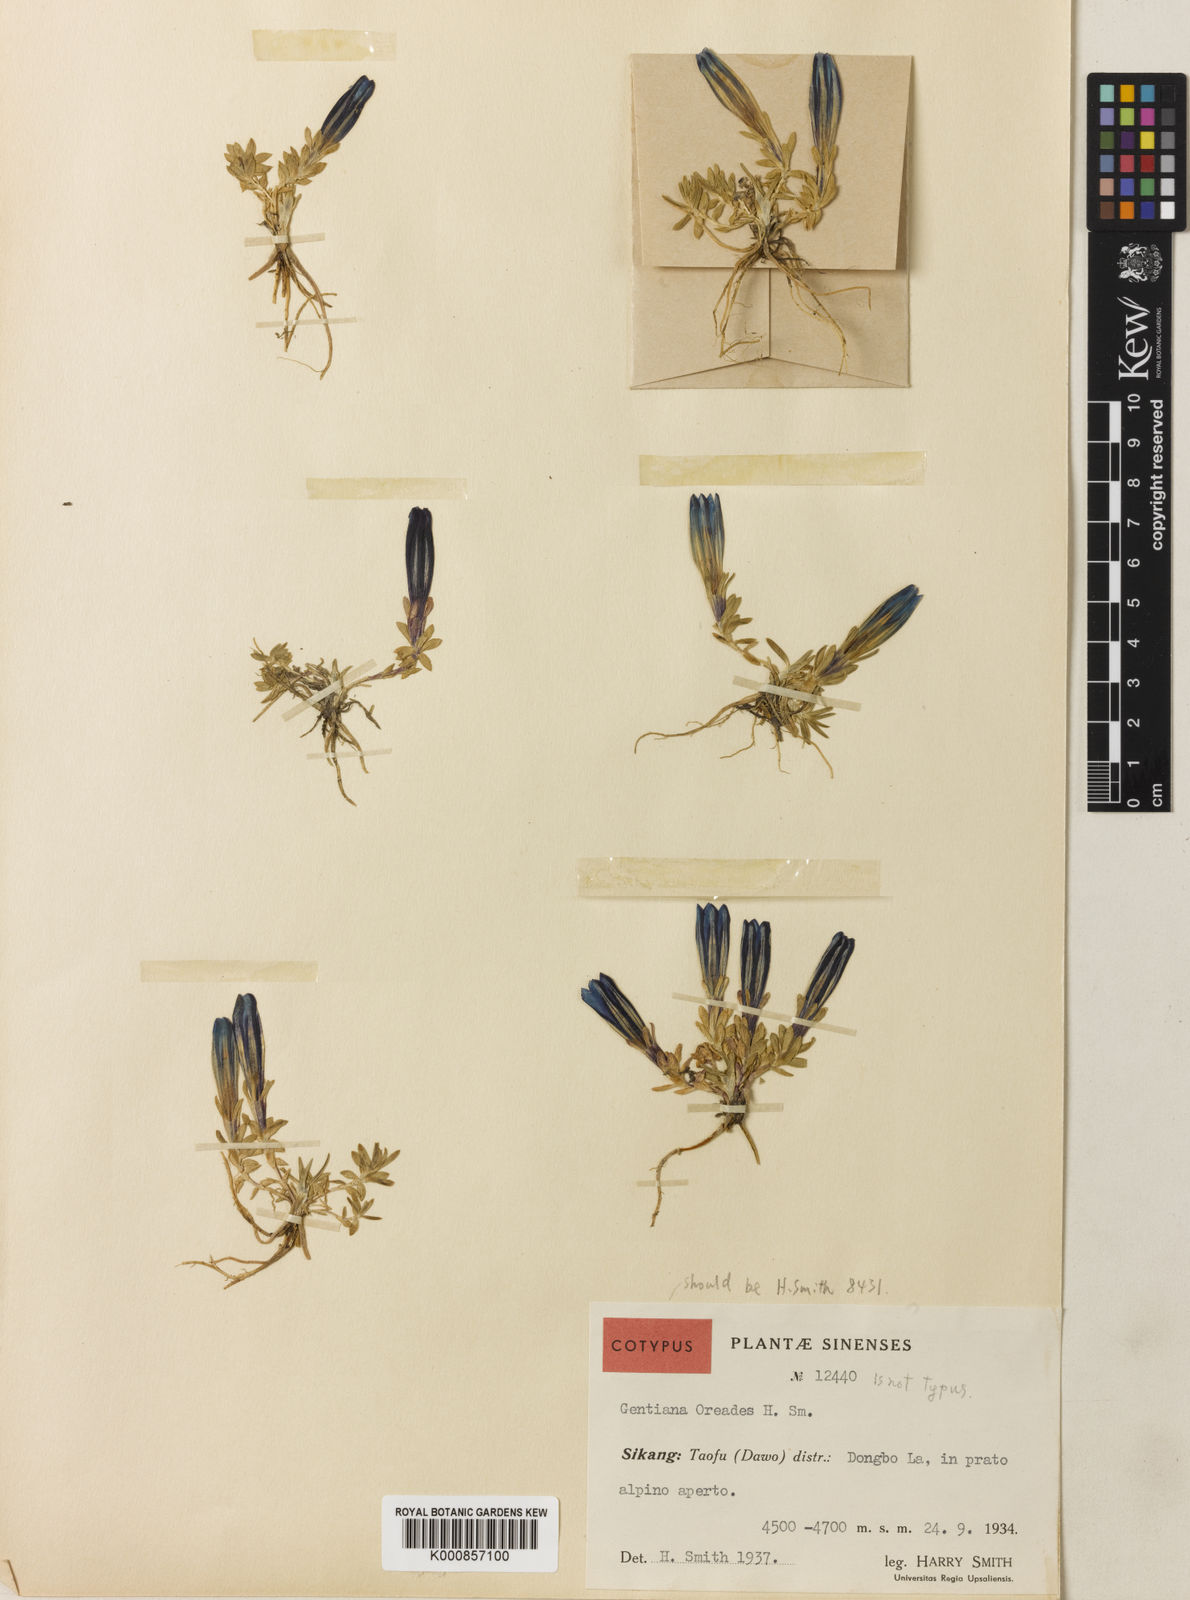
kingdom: Plantae
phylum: Tracheophyta
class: Magnoliopsida
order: Gentianales
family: Gentianaceae
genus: Gentiana
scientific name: Gentiana
